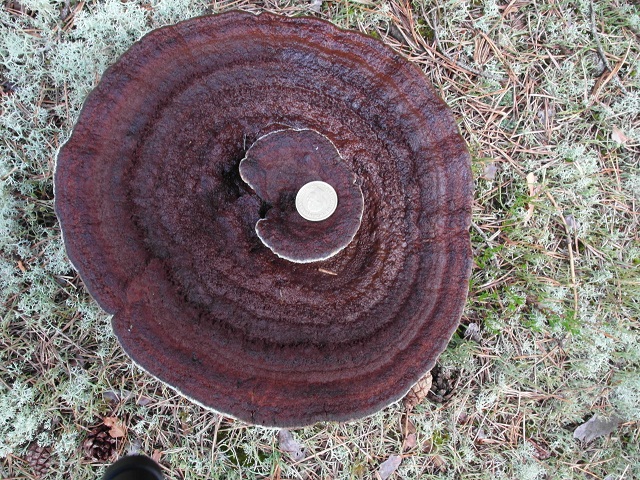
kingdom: Fungi
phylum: Basidiomycota
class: Agaricomycetes
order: Hymenochaetales
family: Hymenochaetaceae
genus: Coltricia
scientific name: Coltricia perennis
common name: almindelig sandporesvamp
